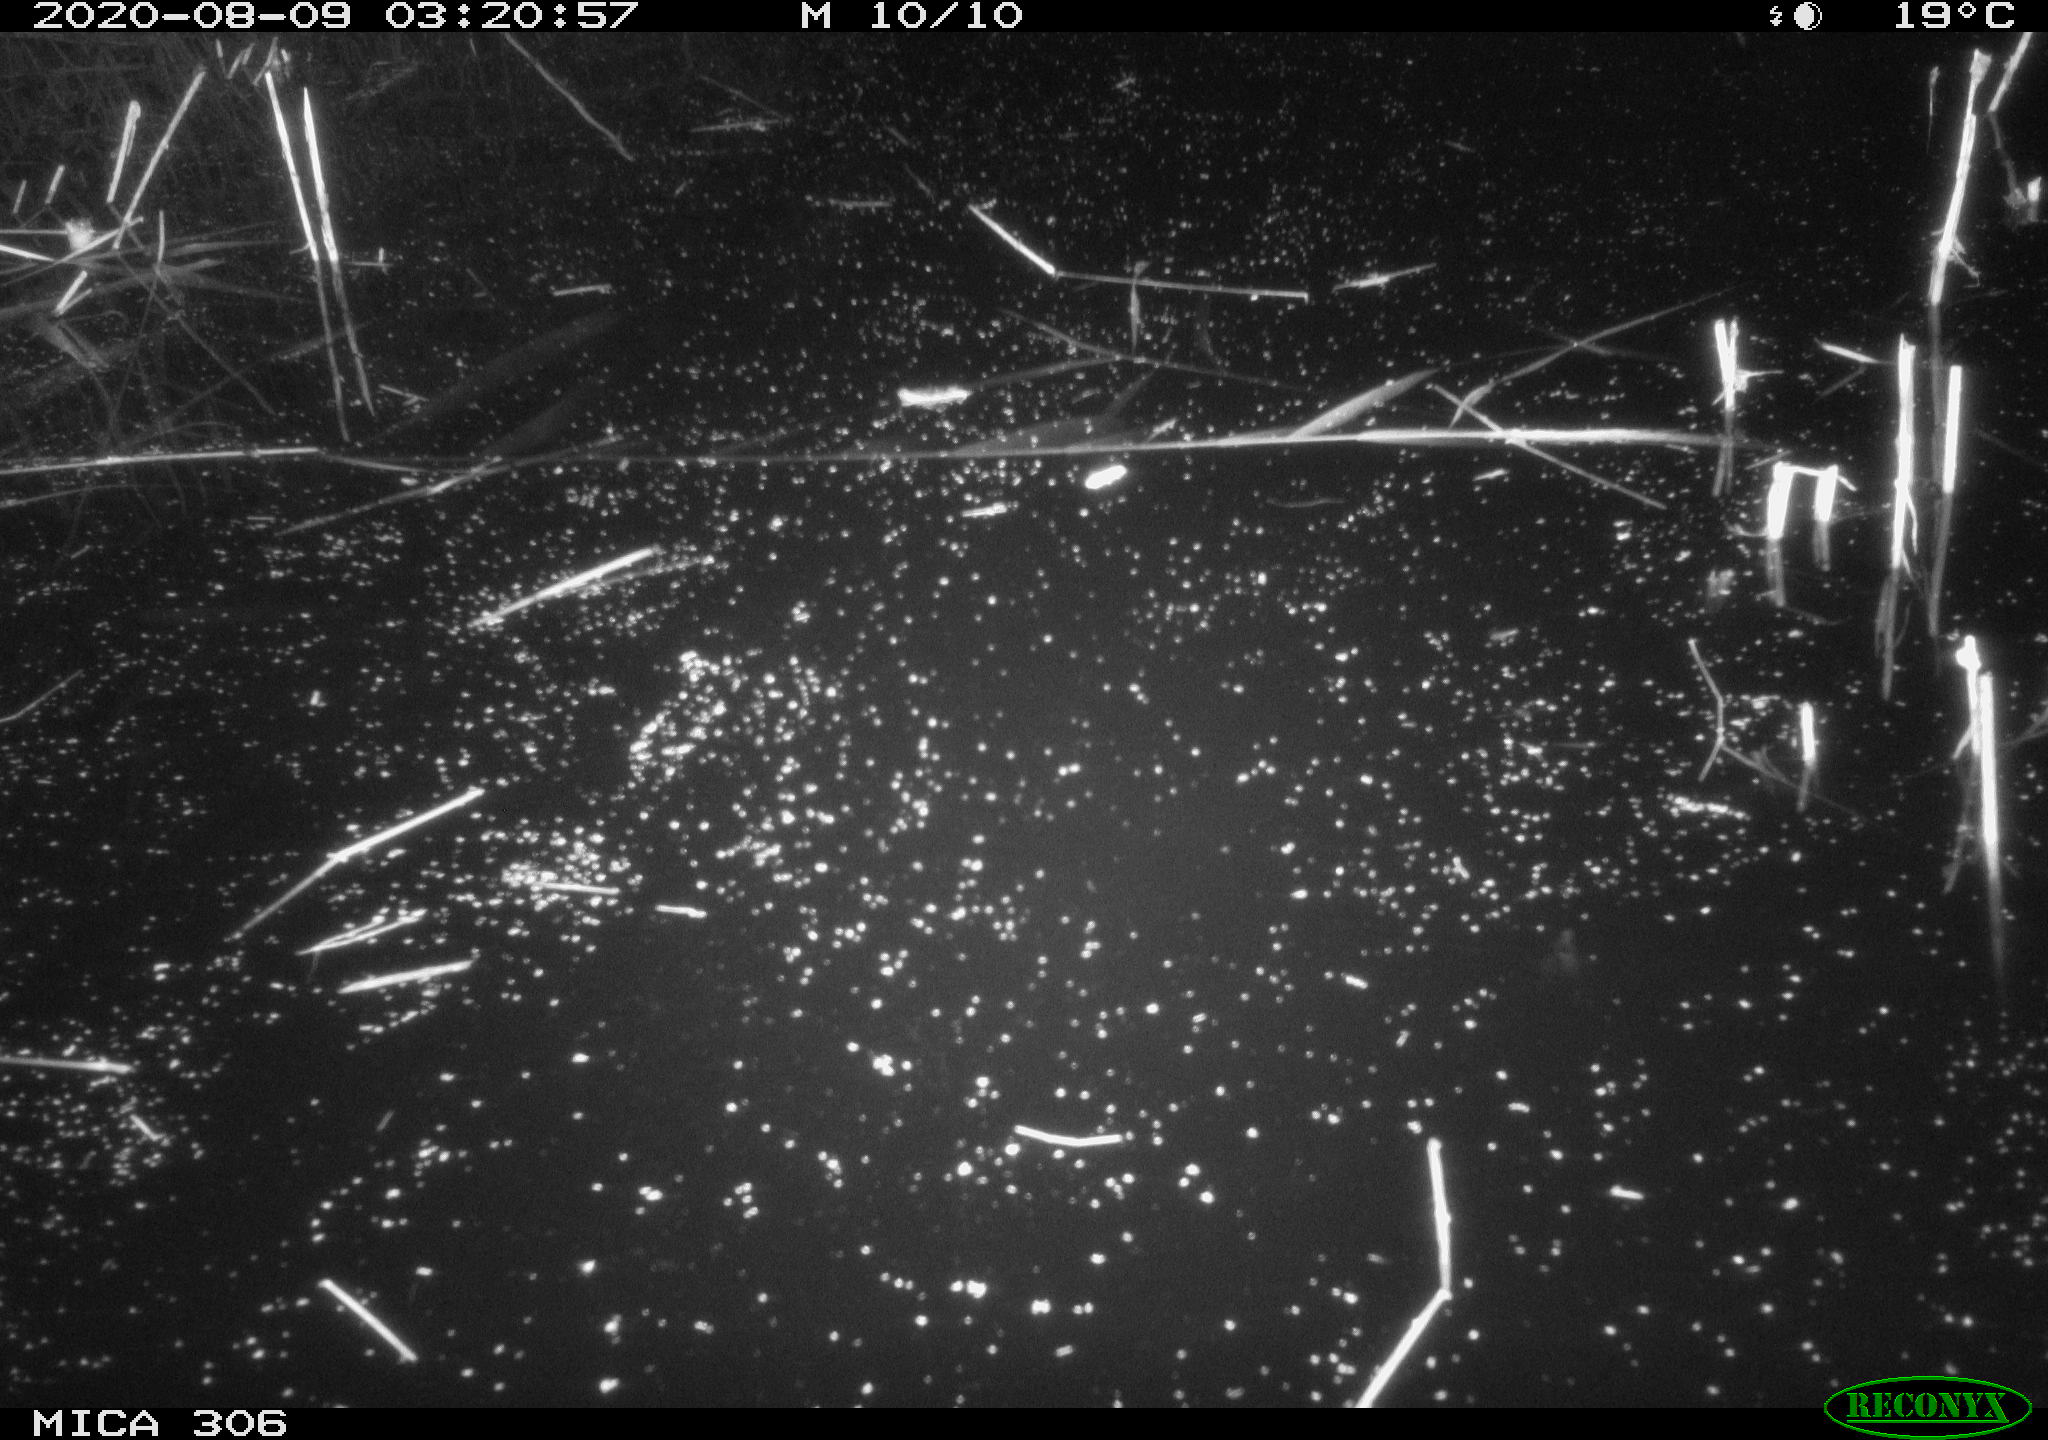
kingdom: Animalia
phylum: Chordata
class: Mammalia
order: Rodentia
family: Muridae
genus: Rattus
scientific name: Rattus norvegicus
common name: Brown rat
